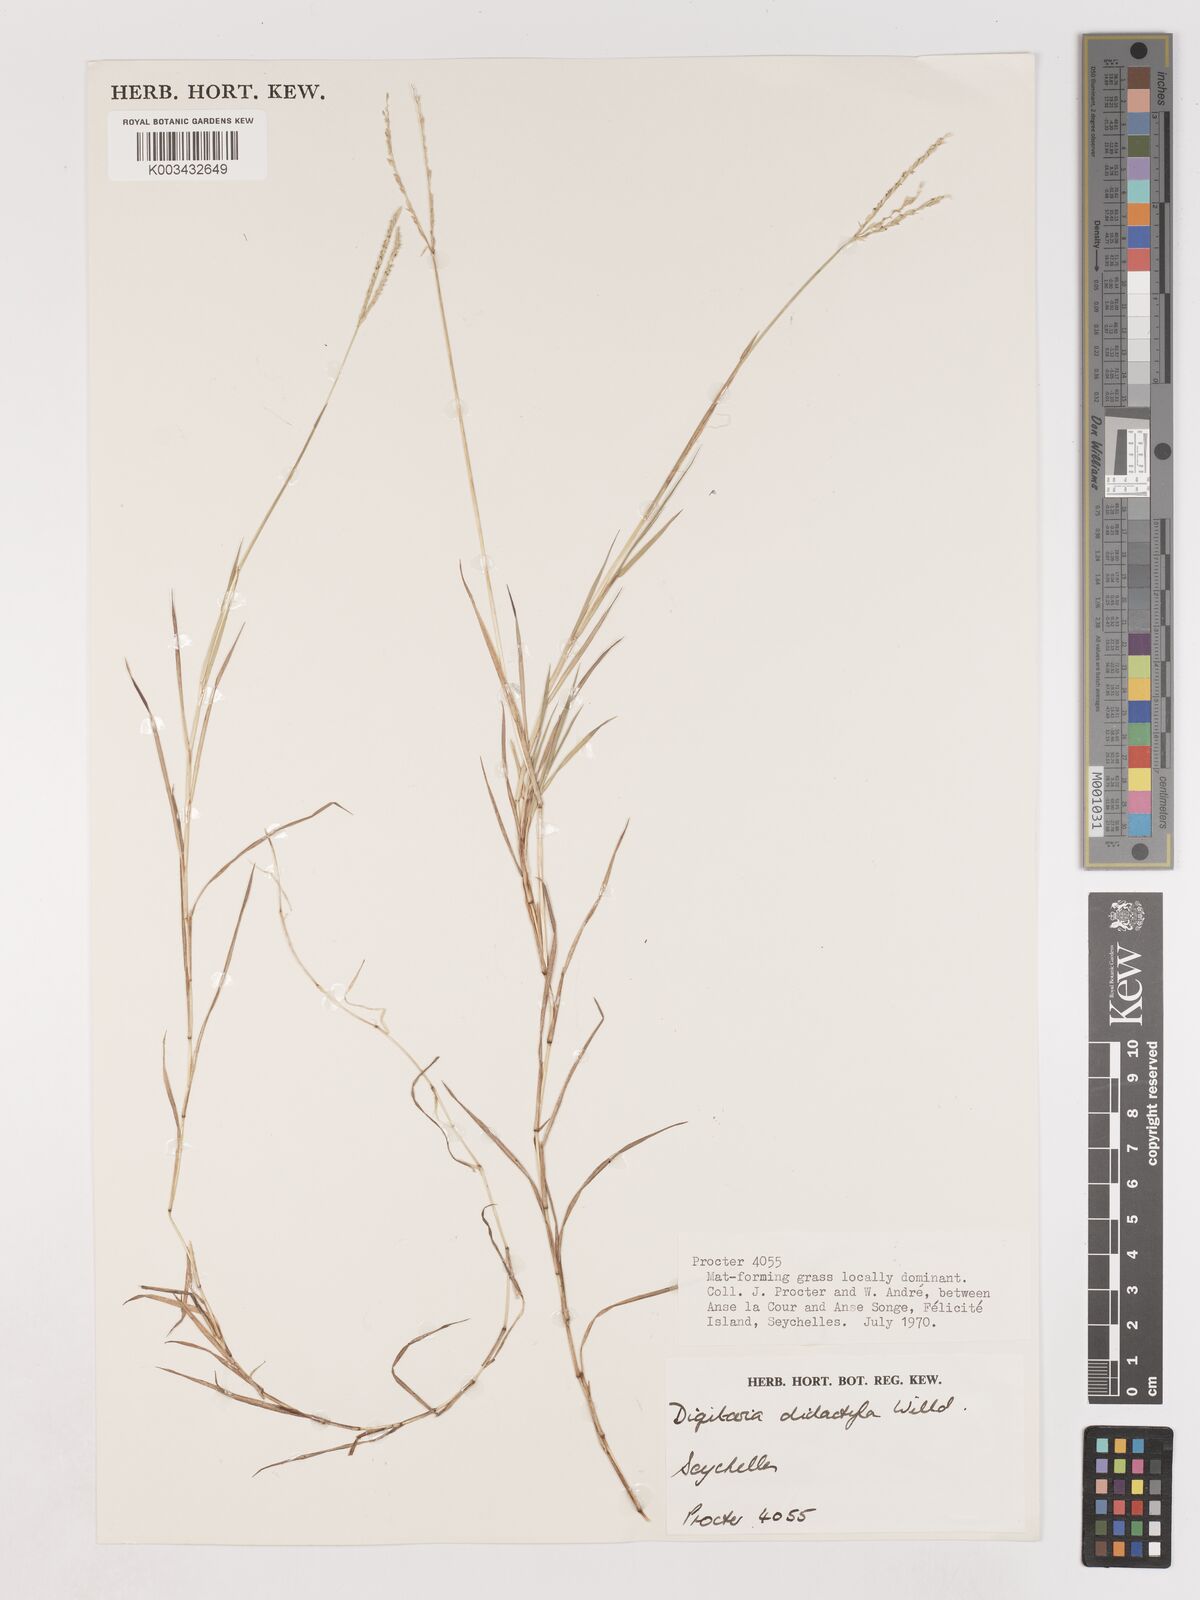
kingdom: Plantae
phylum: Tracheophyta
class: Liliopsida
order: Poales
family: Poaceae
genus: Digitaria
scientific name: Digitaria didactyla
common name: Blue couch
